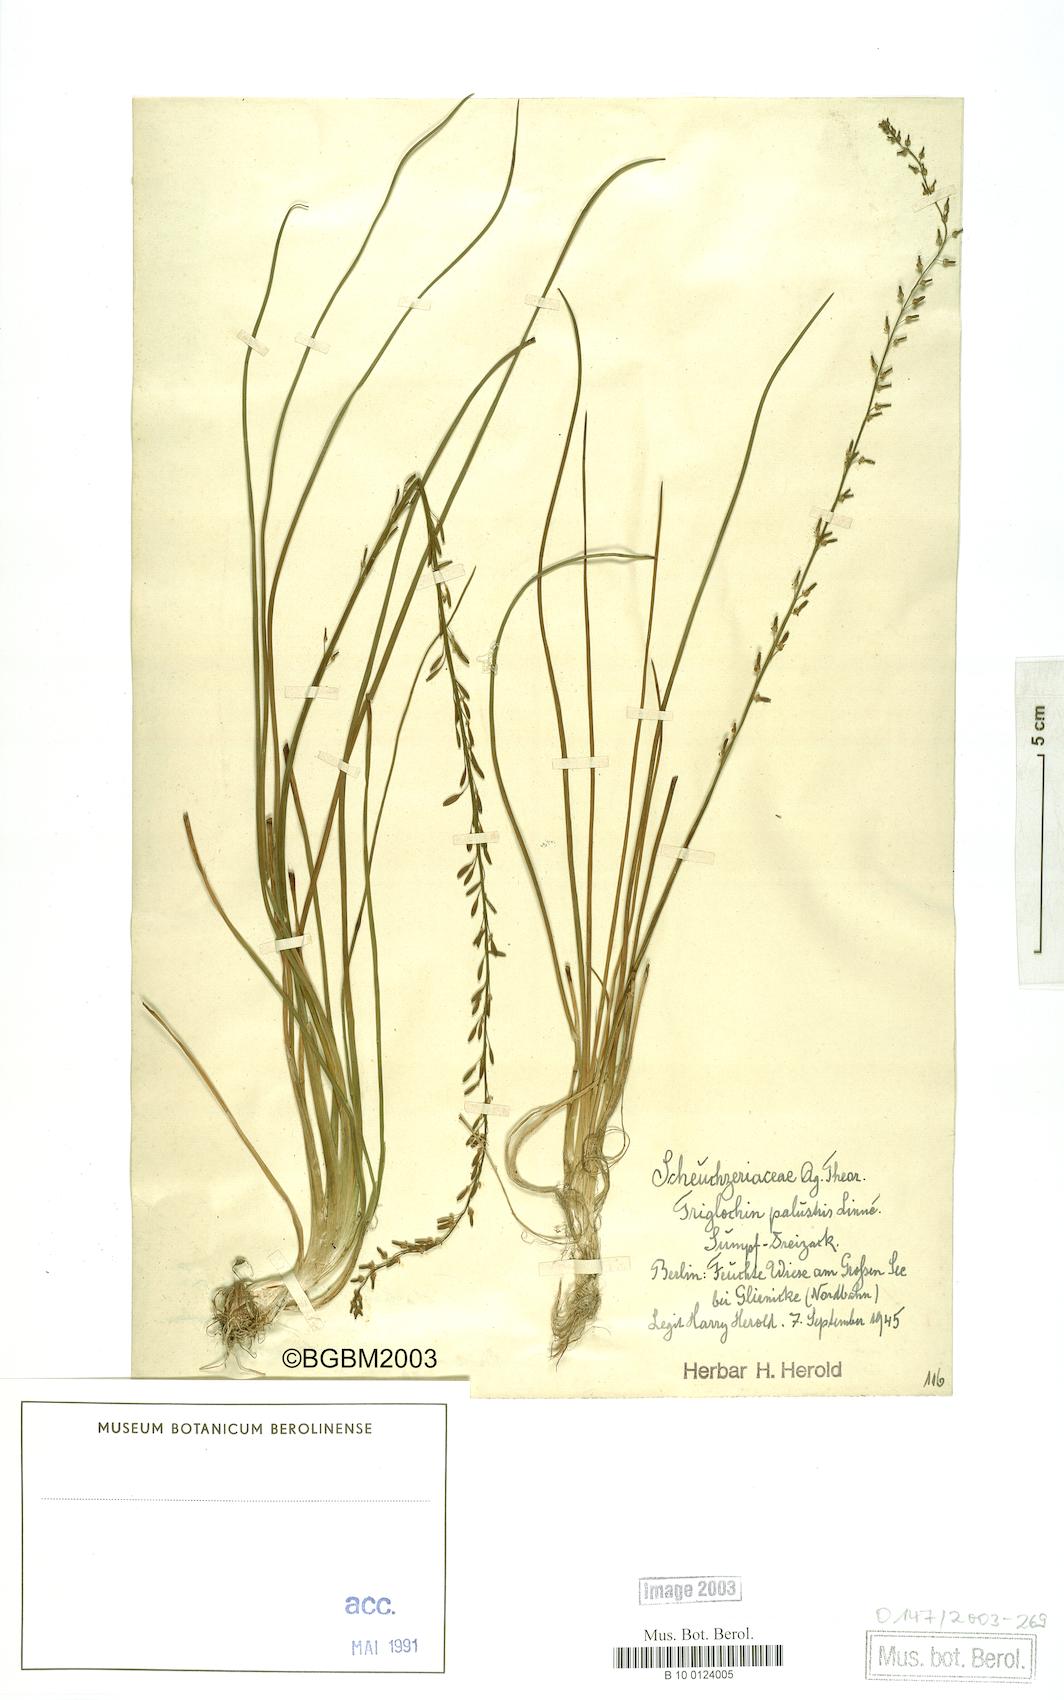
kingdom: Plantae
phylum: Tracheophyta
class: Liliopsida
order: Alismatales
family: Juncaginaceae
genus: Triglochin
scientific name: Triglochin palustris
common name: Marsh arrowgrass
